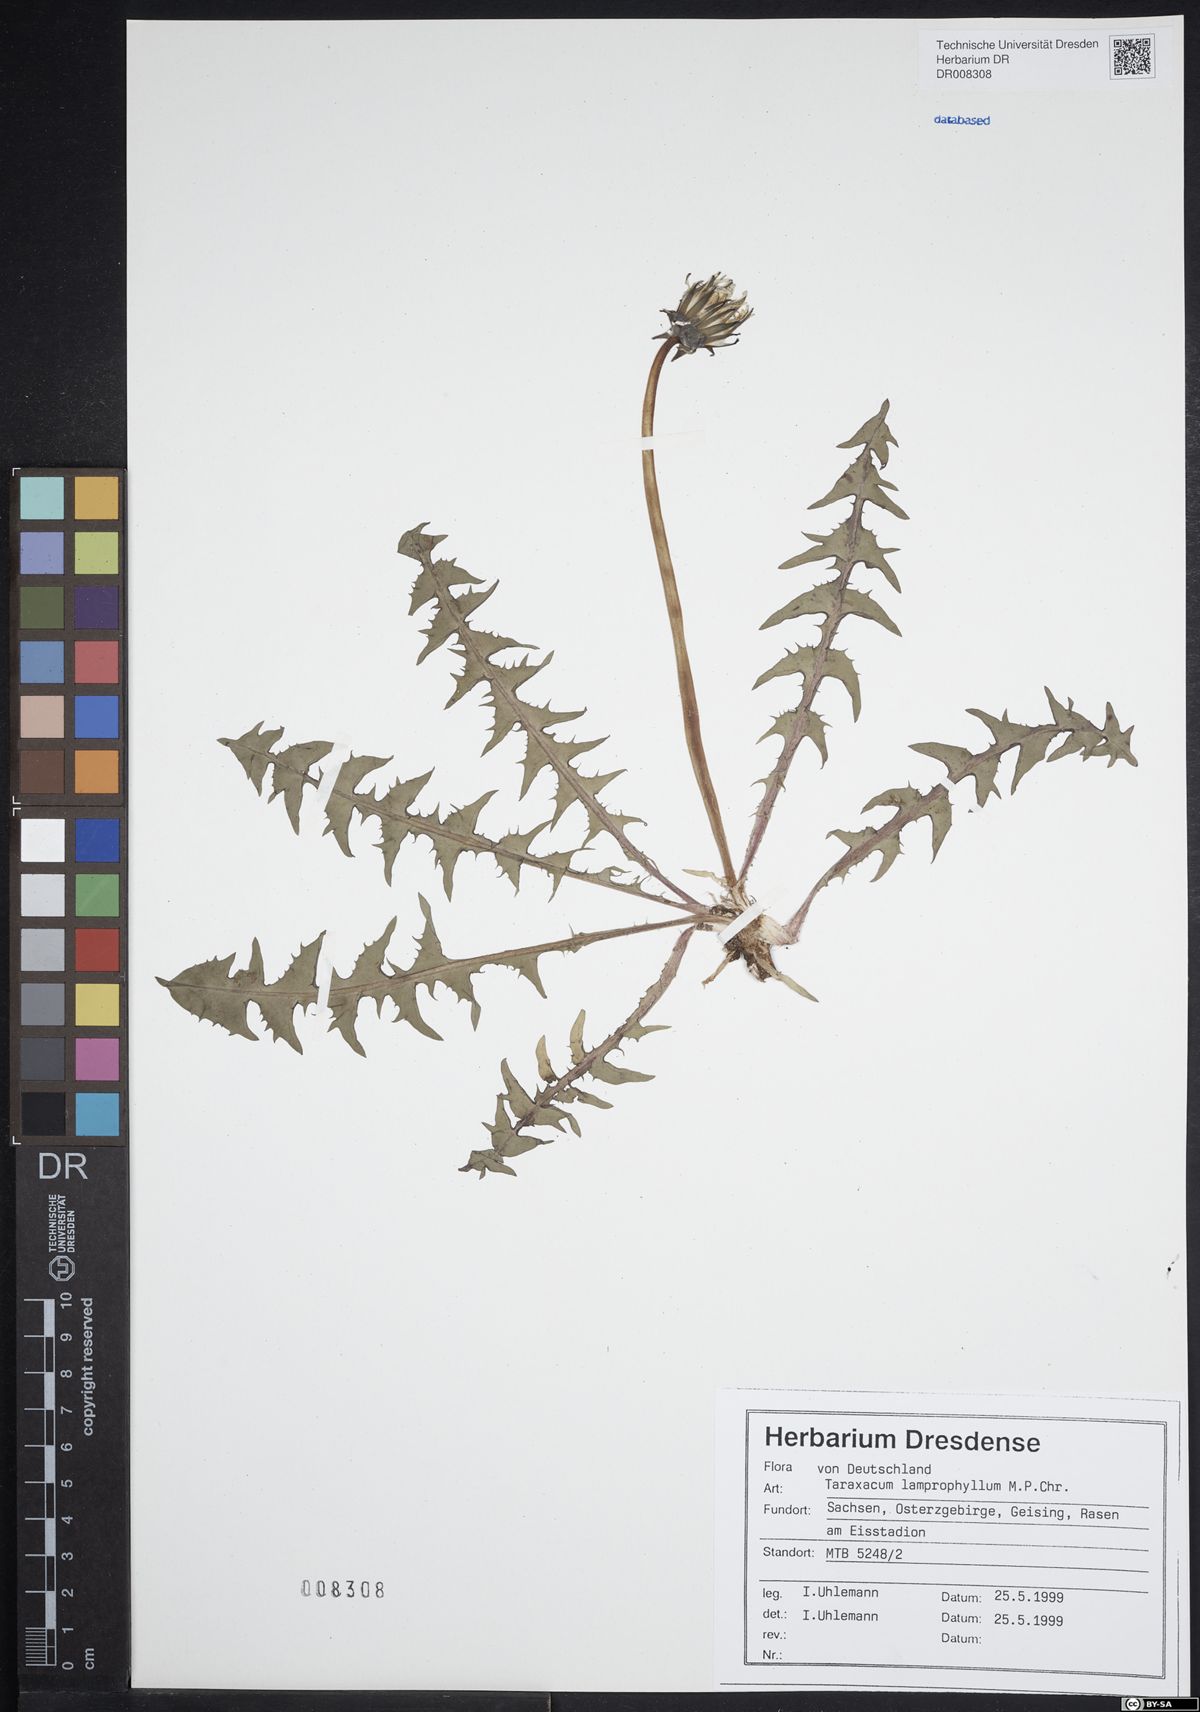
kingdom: Plantae
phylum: Tracheophyta
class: Magnoliopsida
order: Asterales
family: Asteraceae
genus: Taraxacum
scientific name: Taraxacum lamprophyllum
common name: Lustrous-leaved dandelion
